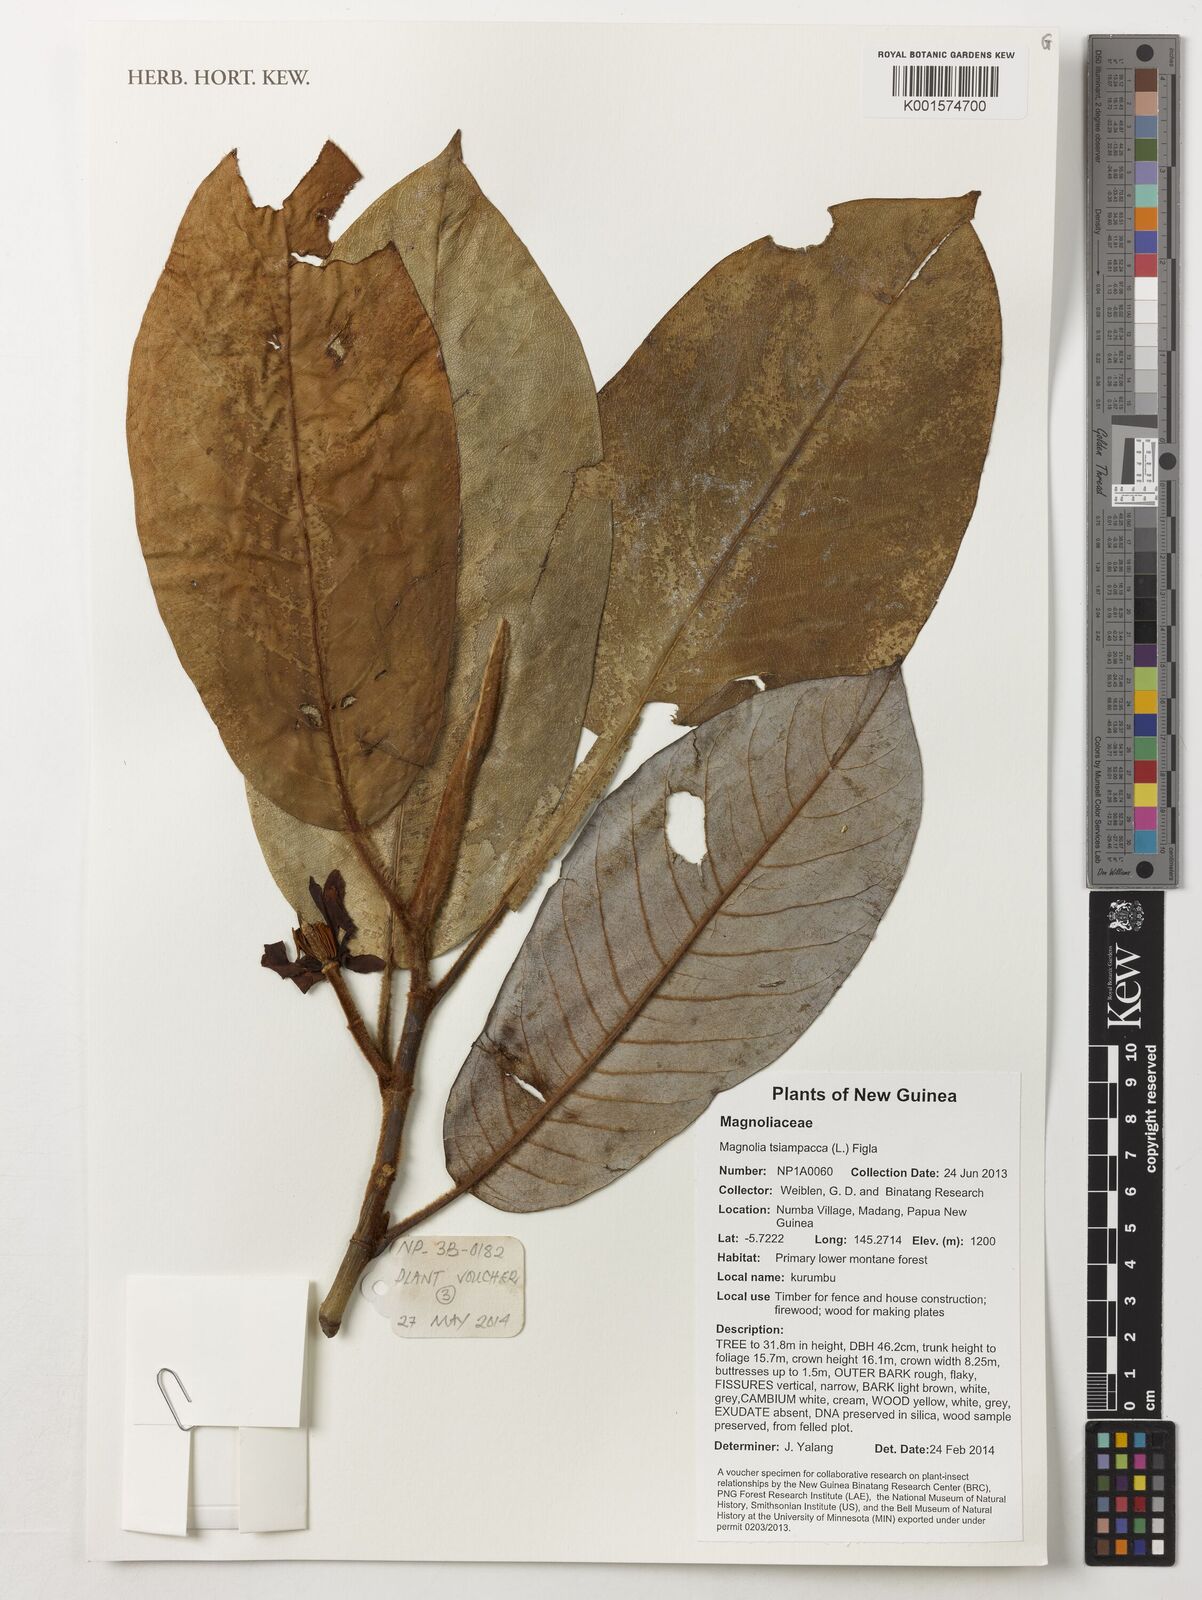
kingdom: Plantae
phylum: Tracheophyta
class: Magnoliopsida
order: Magnoliales
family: Magnoliaceae
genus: Magnolia
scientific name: Magnolia tsiampacca
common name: Wau-beech
